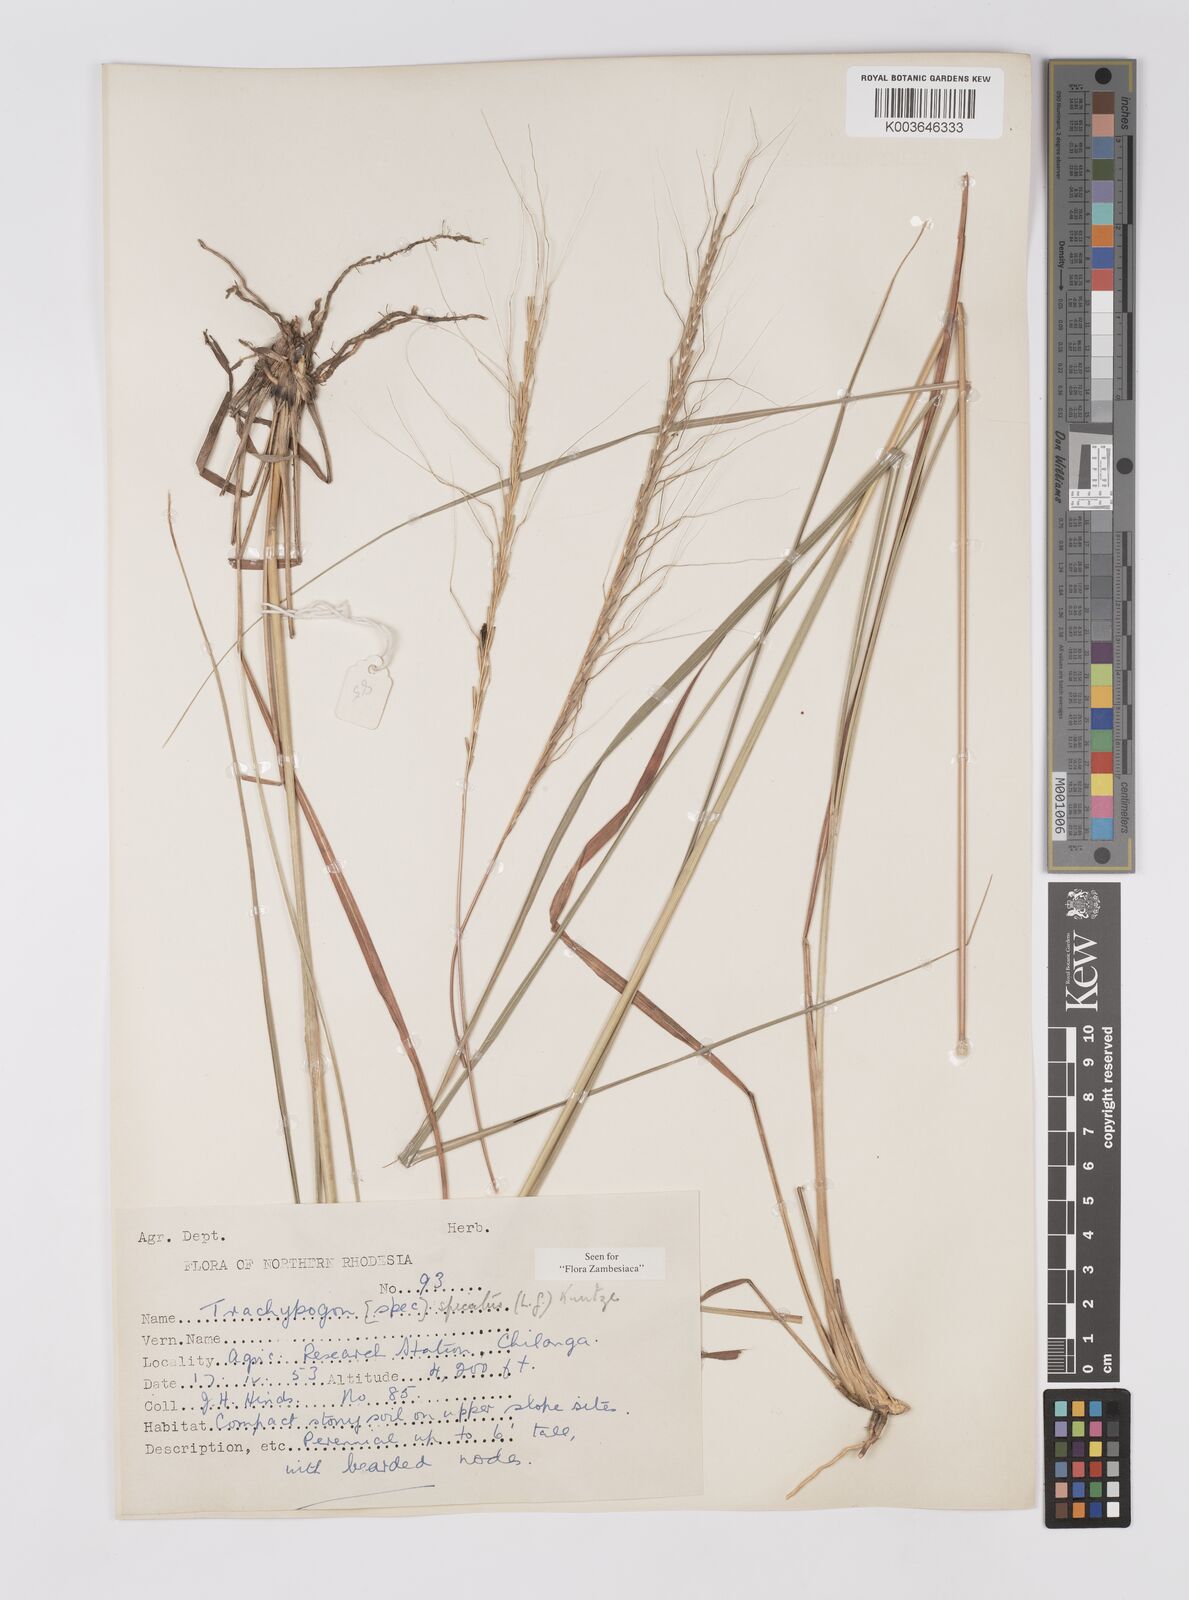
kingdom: Plantae
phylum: Tracheophyta
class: Liliopsida
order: Poales
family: Poaceae
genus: Trachypogon
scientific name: Trachypogon spicatus
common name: Crinkle-awn
